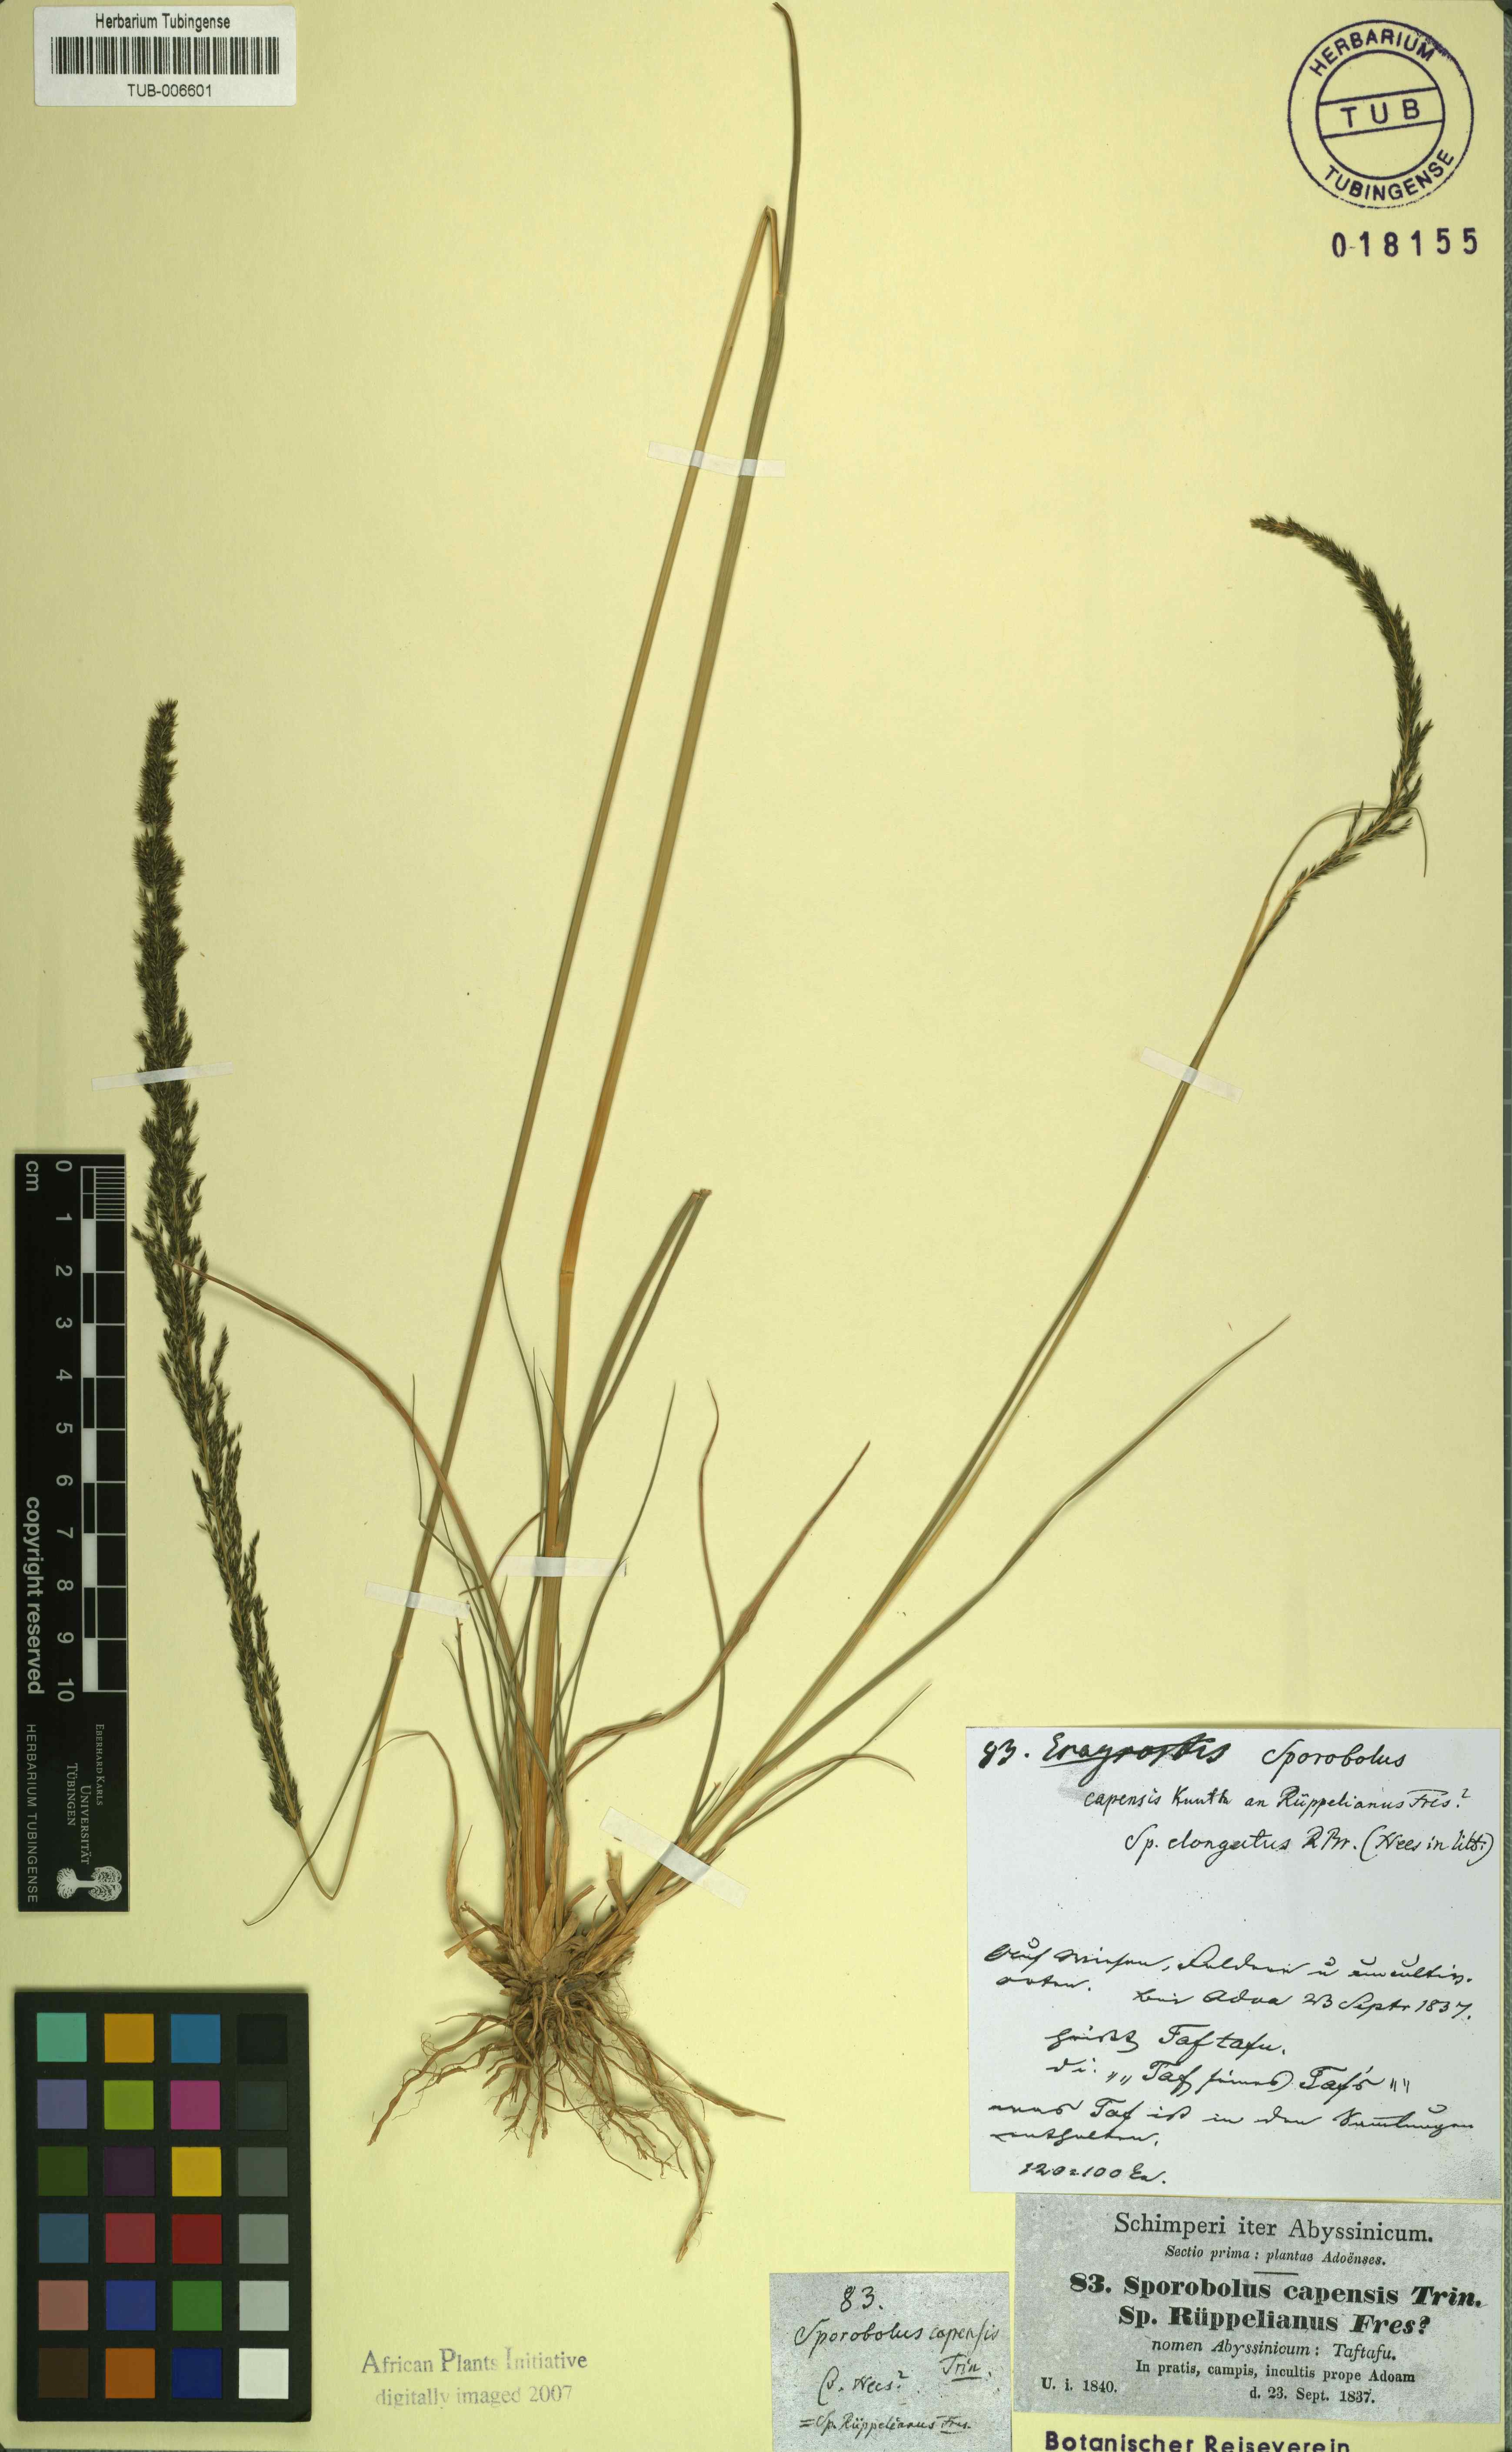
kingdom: Plantae
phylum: Tracheophyta
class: Liliopsida
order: Poales
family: Poaceae
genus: Sporobolus
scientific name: Sporobolus africanus
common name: African dropseed
